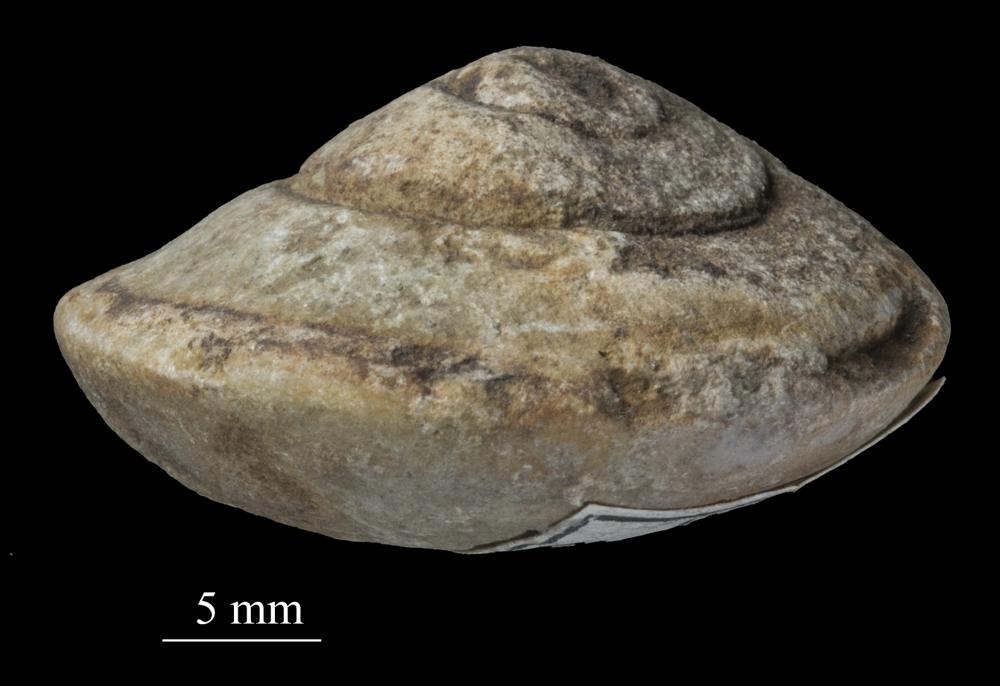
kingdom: Animalia
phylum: Mollusca
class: Gastropoda
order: Pleurotomariida
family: Pleurotomariidae
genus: Pleurotomaria
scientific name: Pleurotomaria
